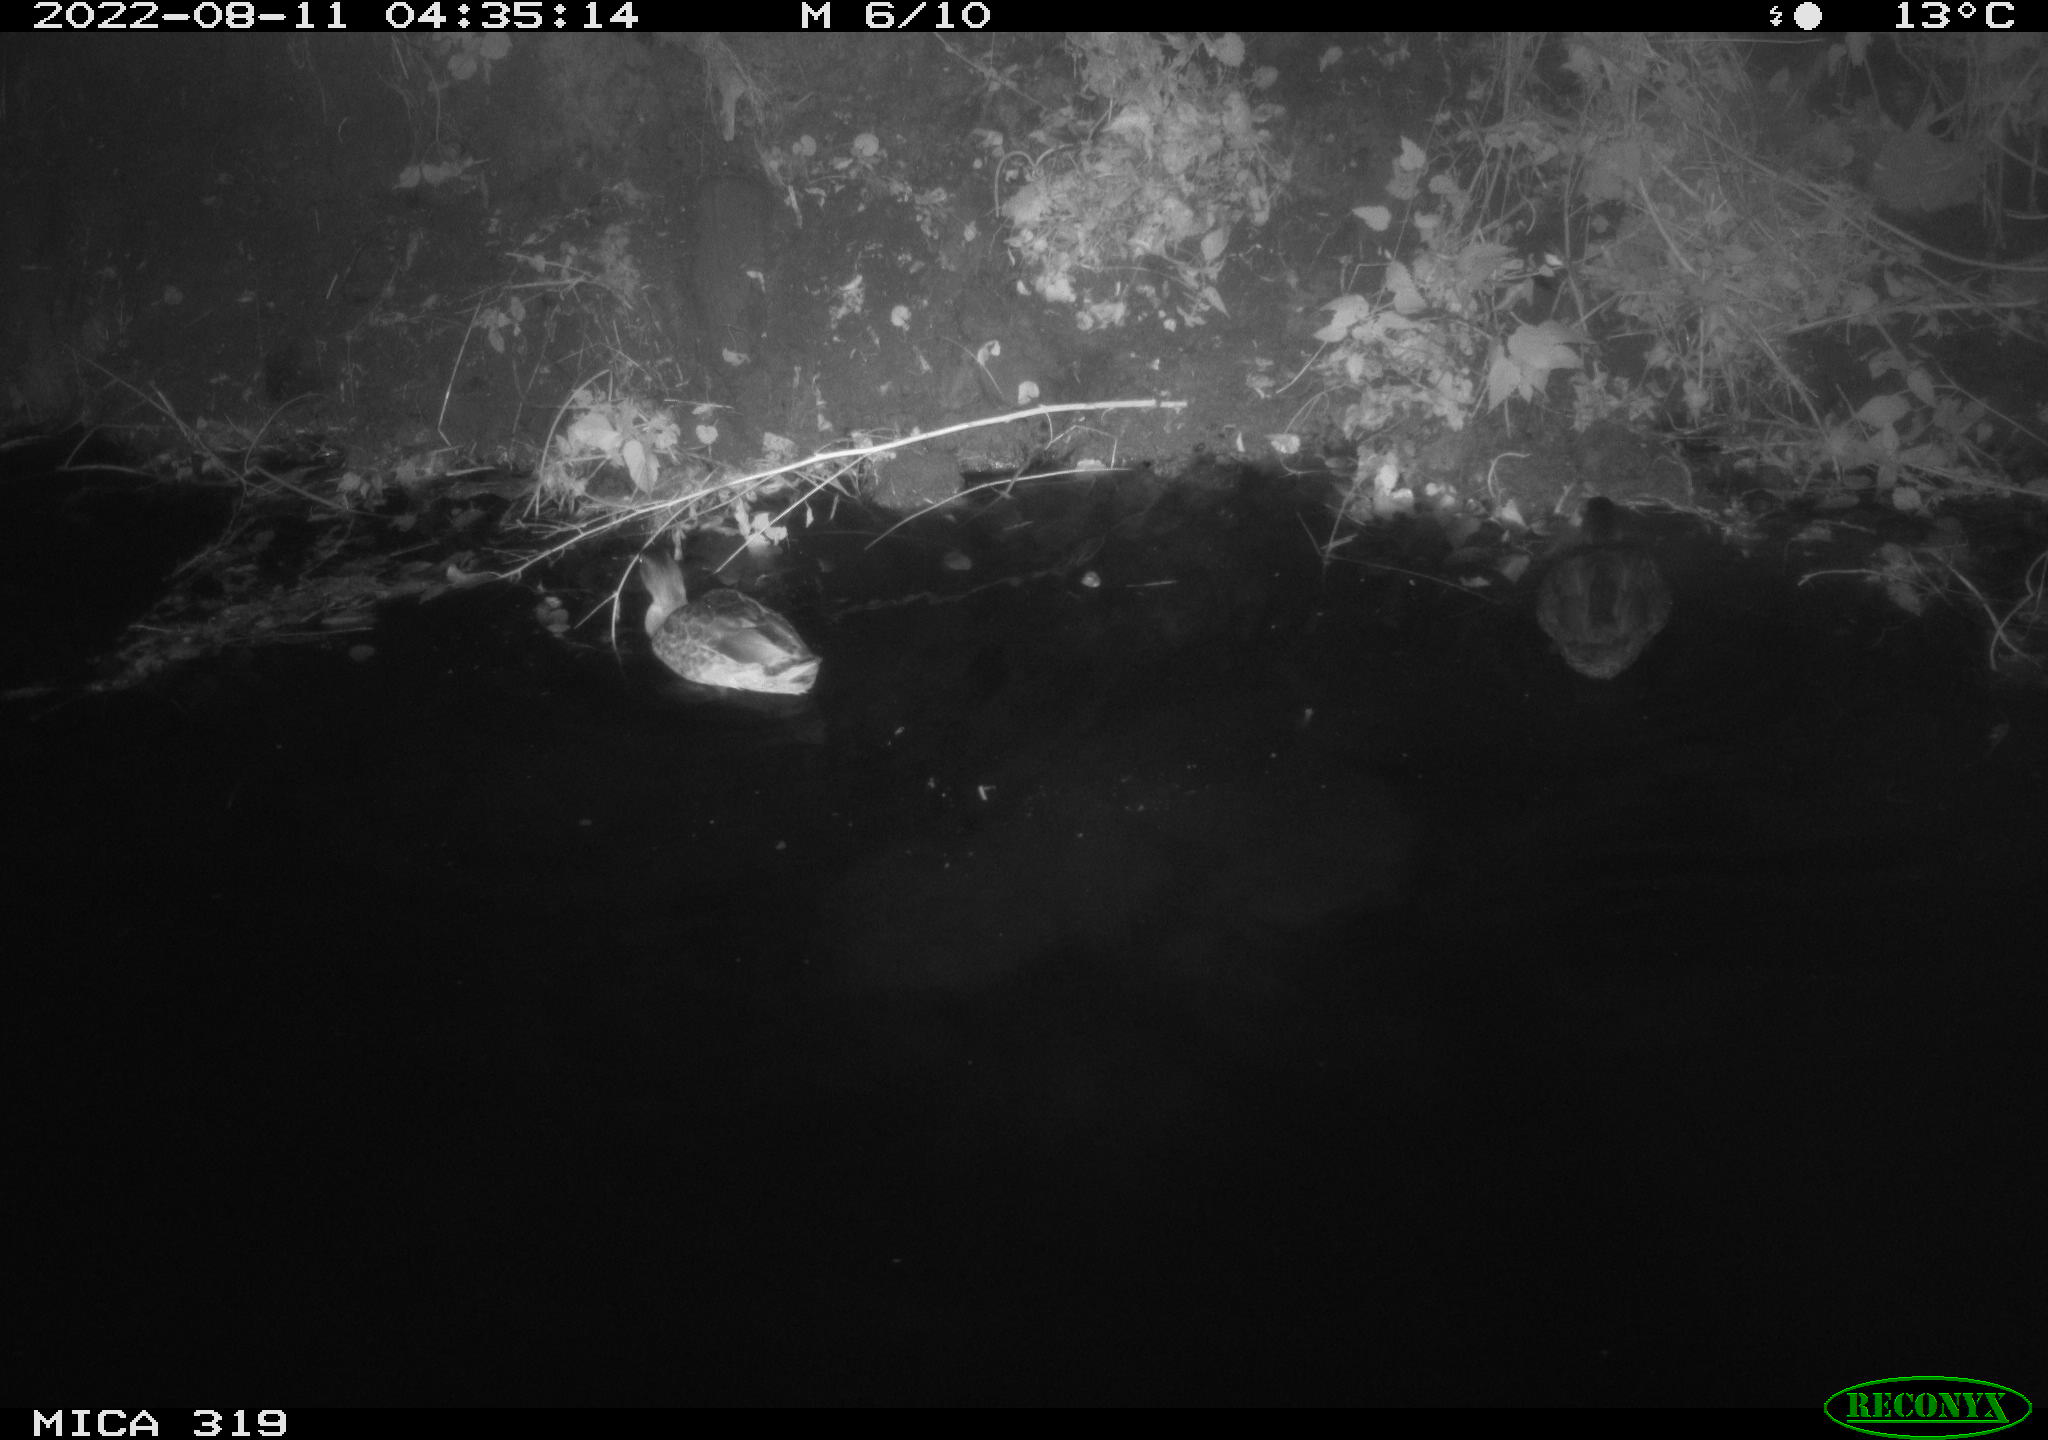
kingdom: Animalia
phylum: Chordata
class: Aves
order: Gruiformes
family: Rallidae
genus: Fulica
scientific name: Fulica atra
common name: Eurasian coot
